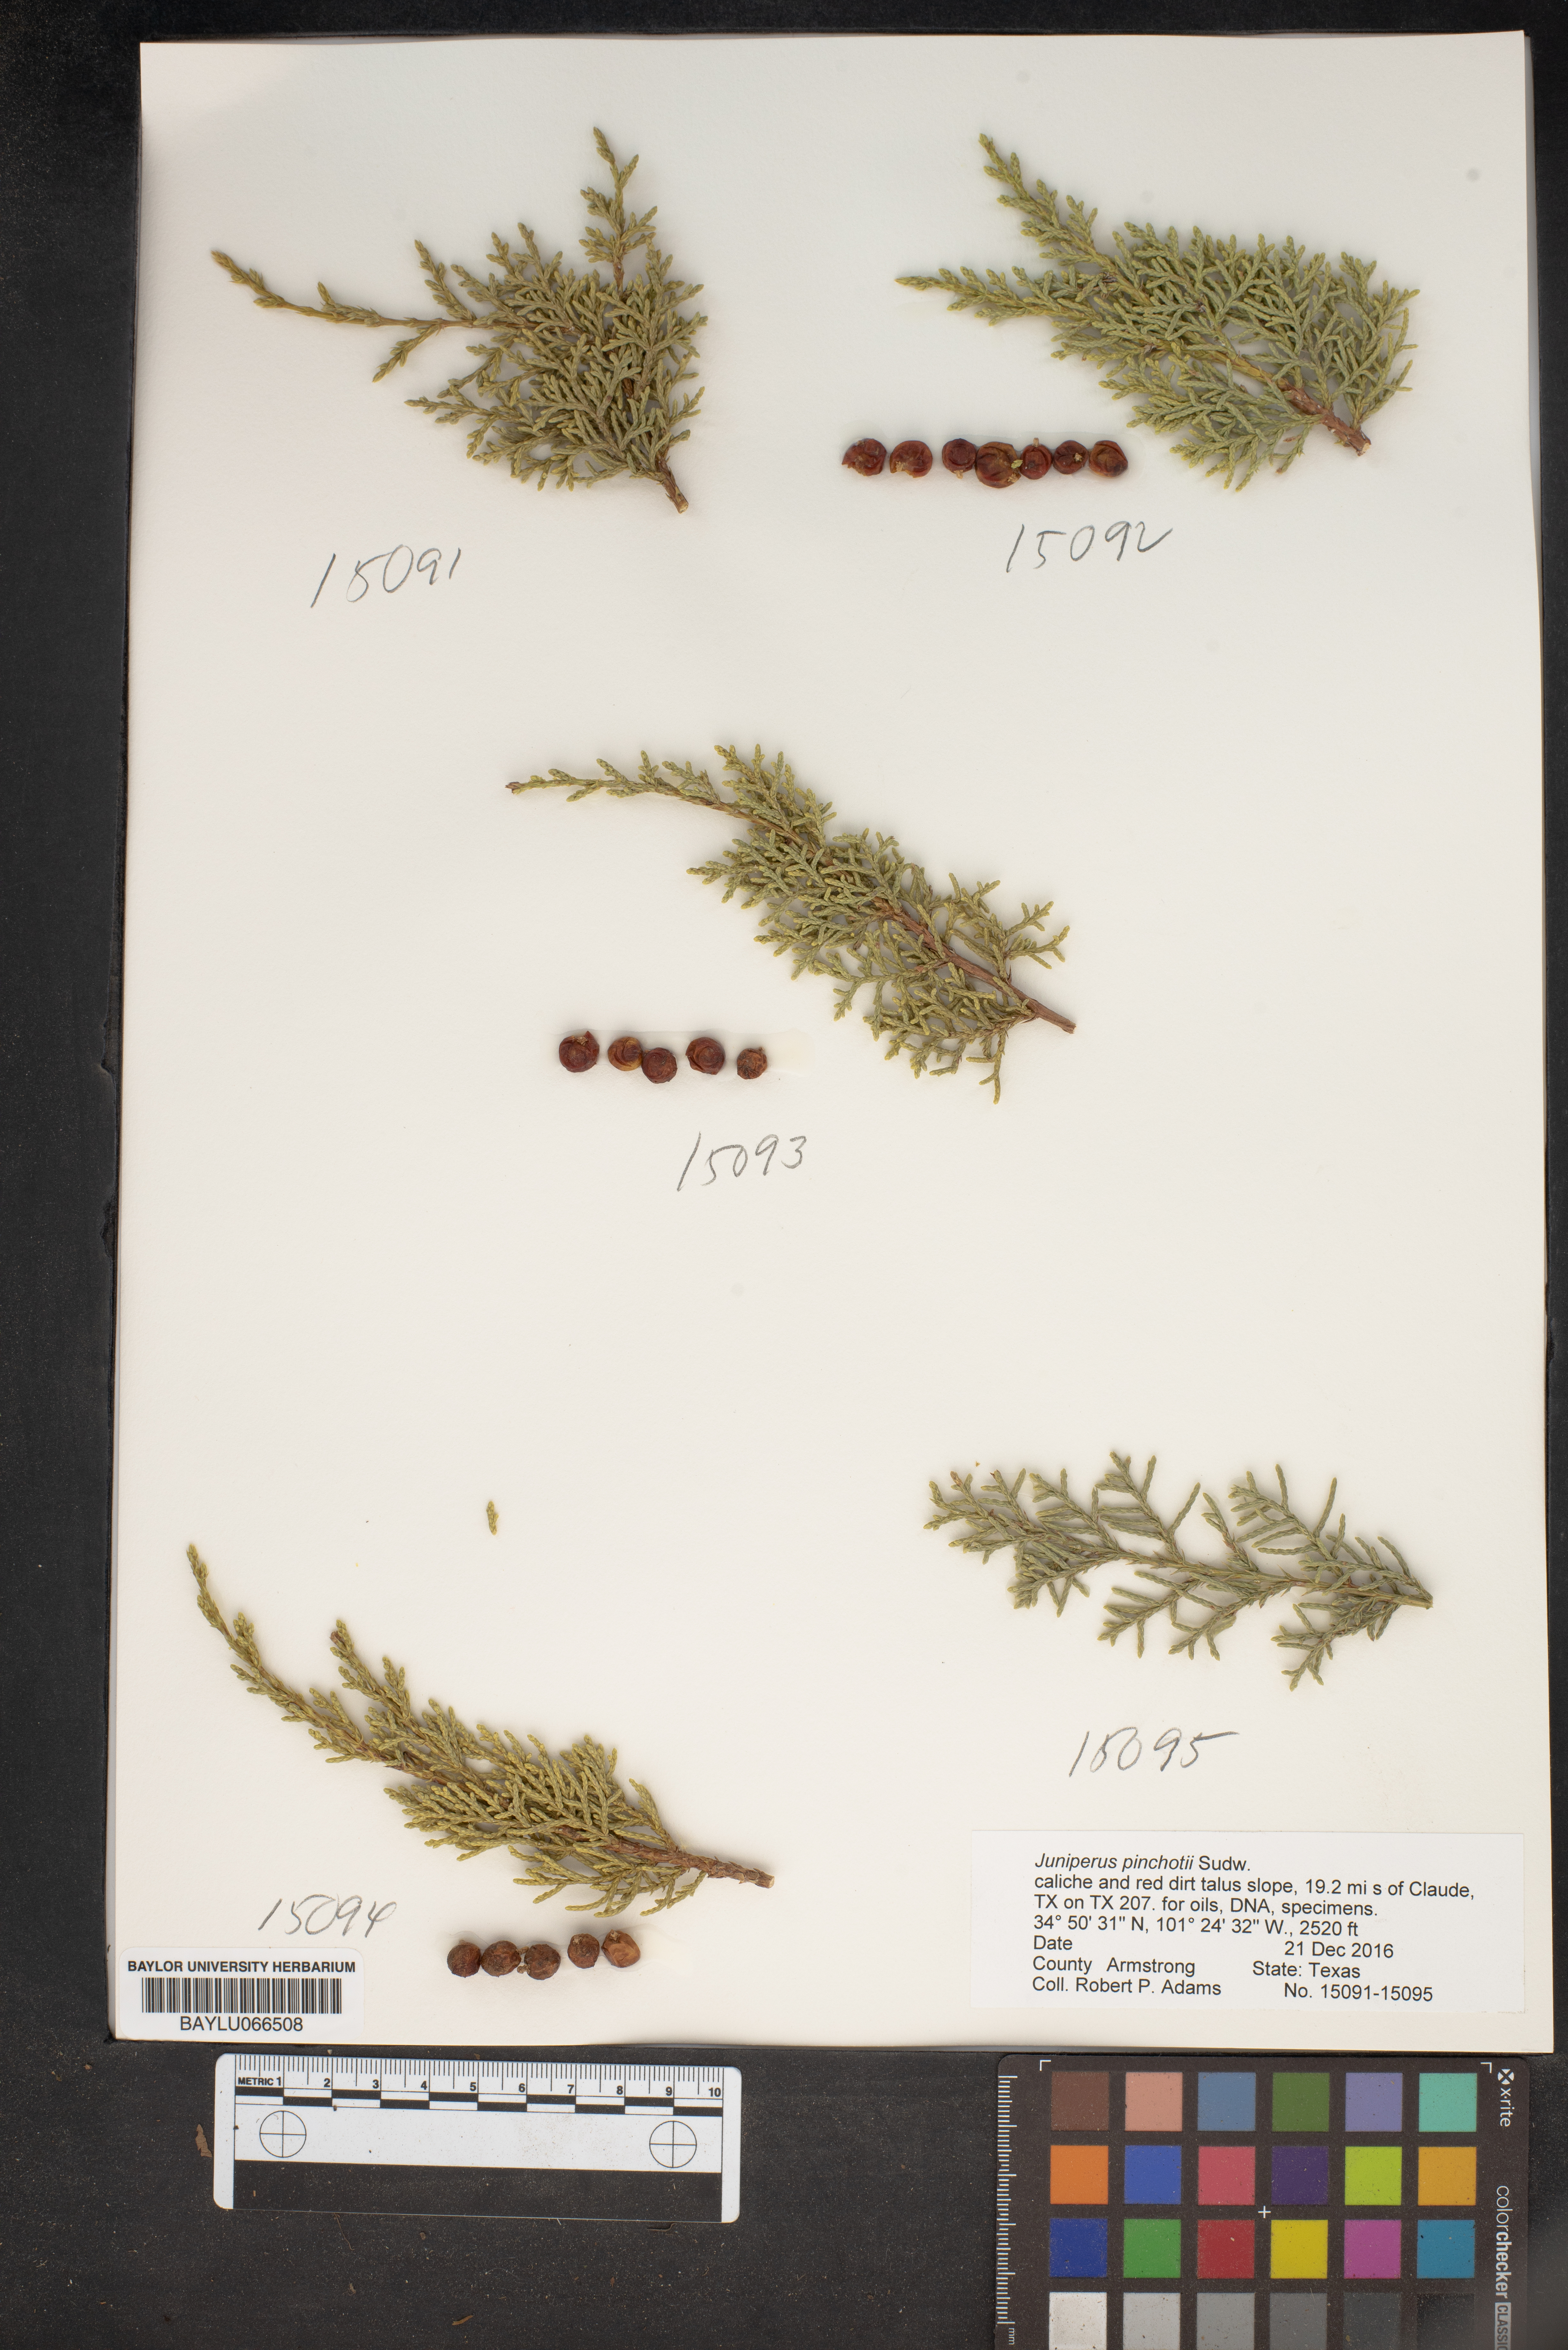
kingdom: Plantae
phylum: Tracheophyta
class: Pinopsida
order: Pinales
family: Cupressaceae
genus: Juniperus
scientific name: Juniperus pinchotii
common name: Pinchot juniper
